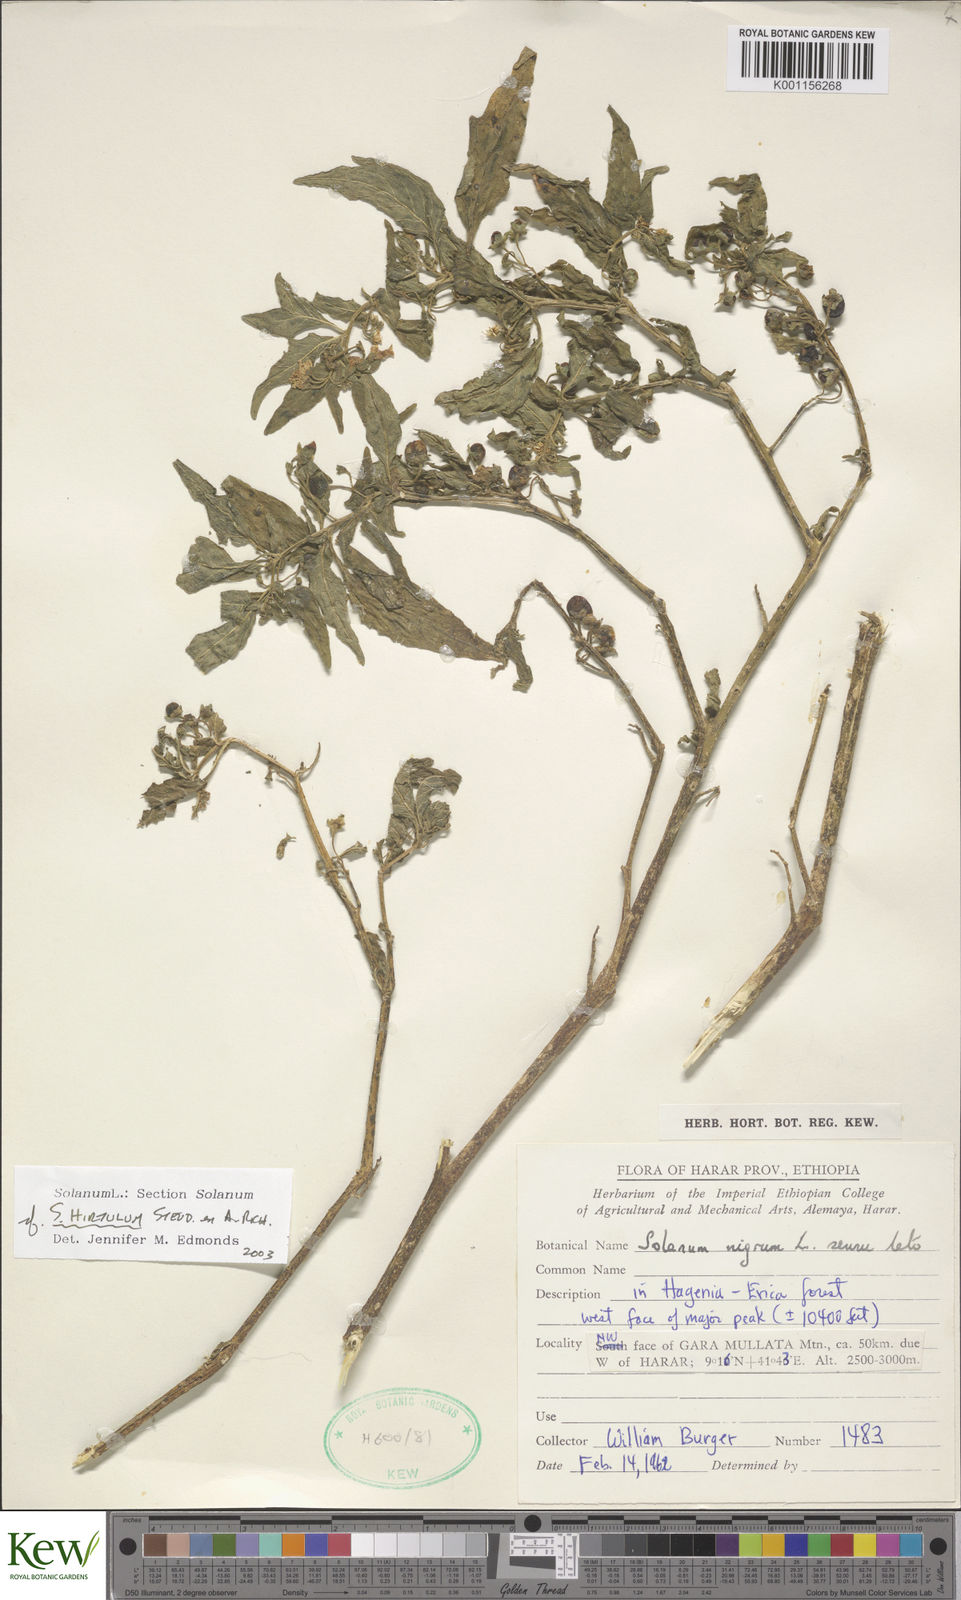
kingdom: Plantae
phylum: Tracheophyta
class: Magnoliopsida
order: Solanales
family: Solanaceae
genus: Solanum
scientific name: Solanum hirtulum
